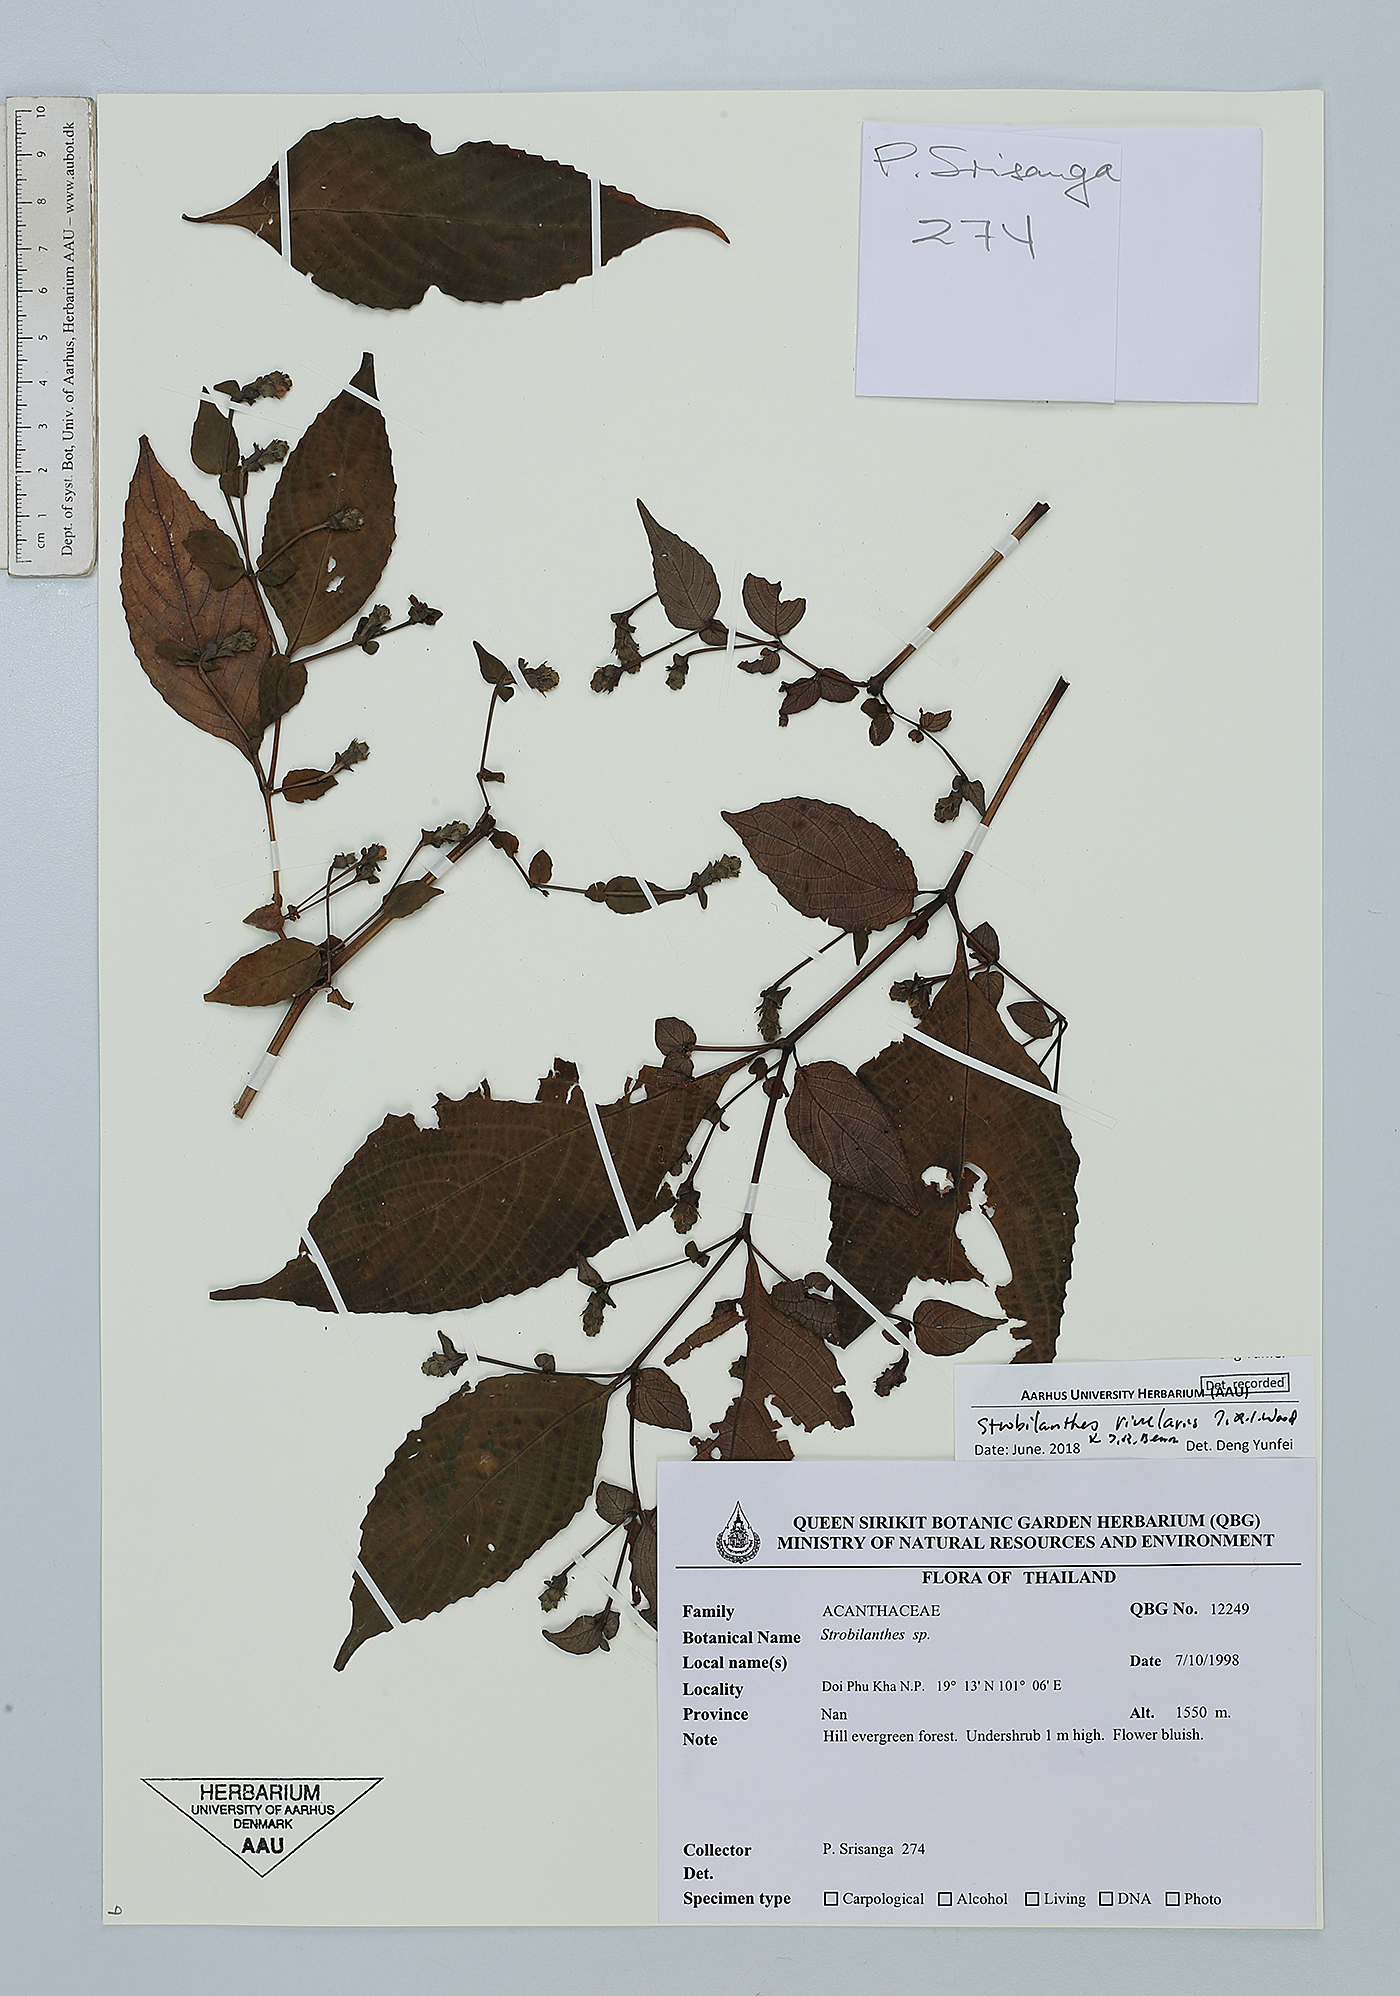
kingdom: Plantae
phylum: Tracheophyta
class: Magnoliopsida
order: Lamiales
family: Acanthaceae
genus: Strobilanthes
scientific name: Strobilanthes rivularis
